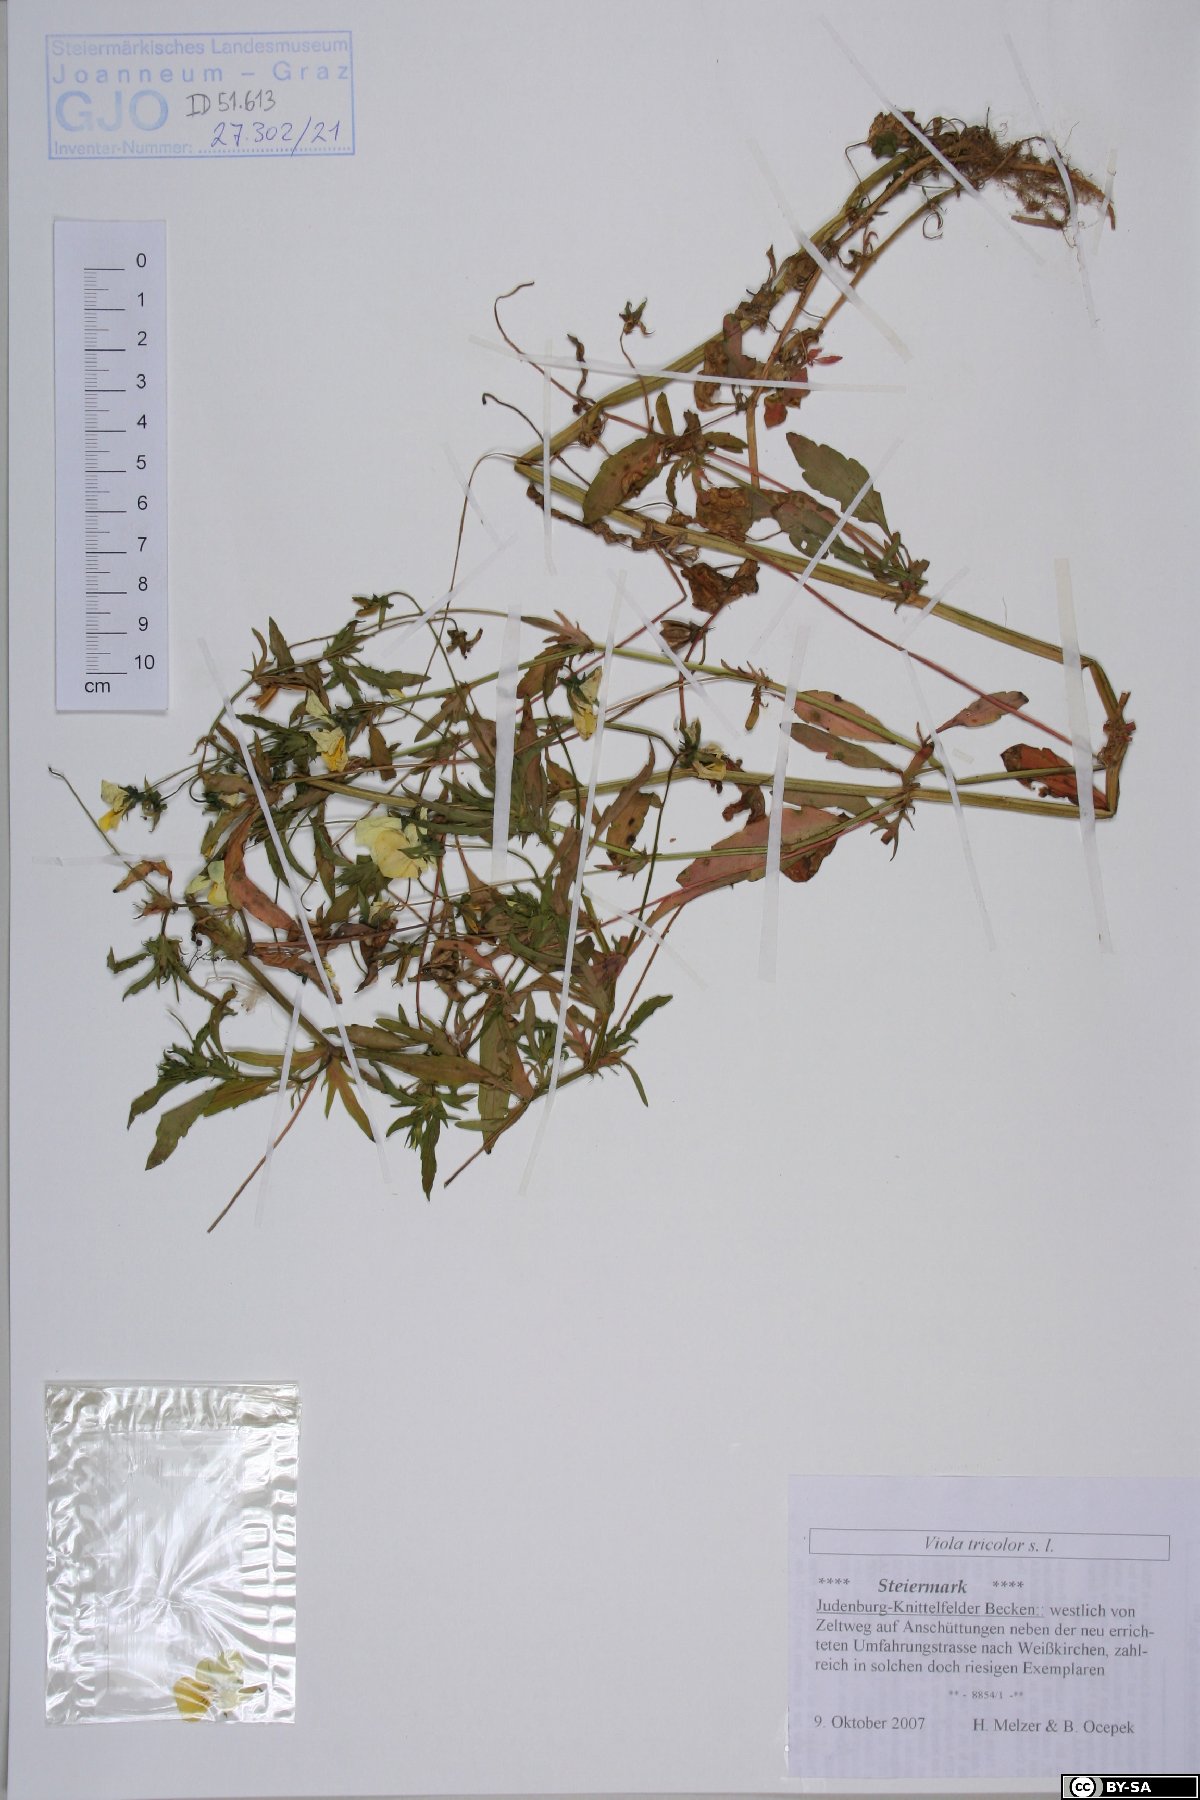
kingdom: Plantae
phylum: Tracheophyta
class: Magnoliopsida
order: Malpighiales
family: Violaceae
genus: Viola
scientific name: Viola tricolor
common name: Pansy
